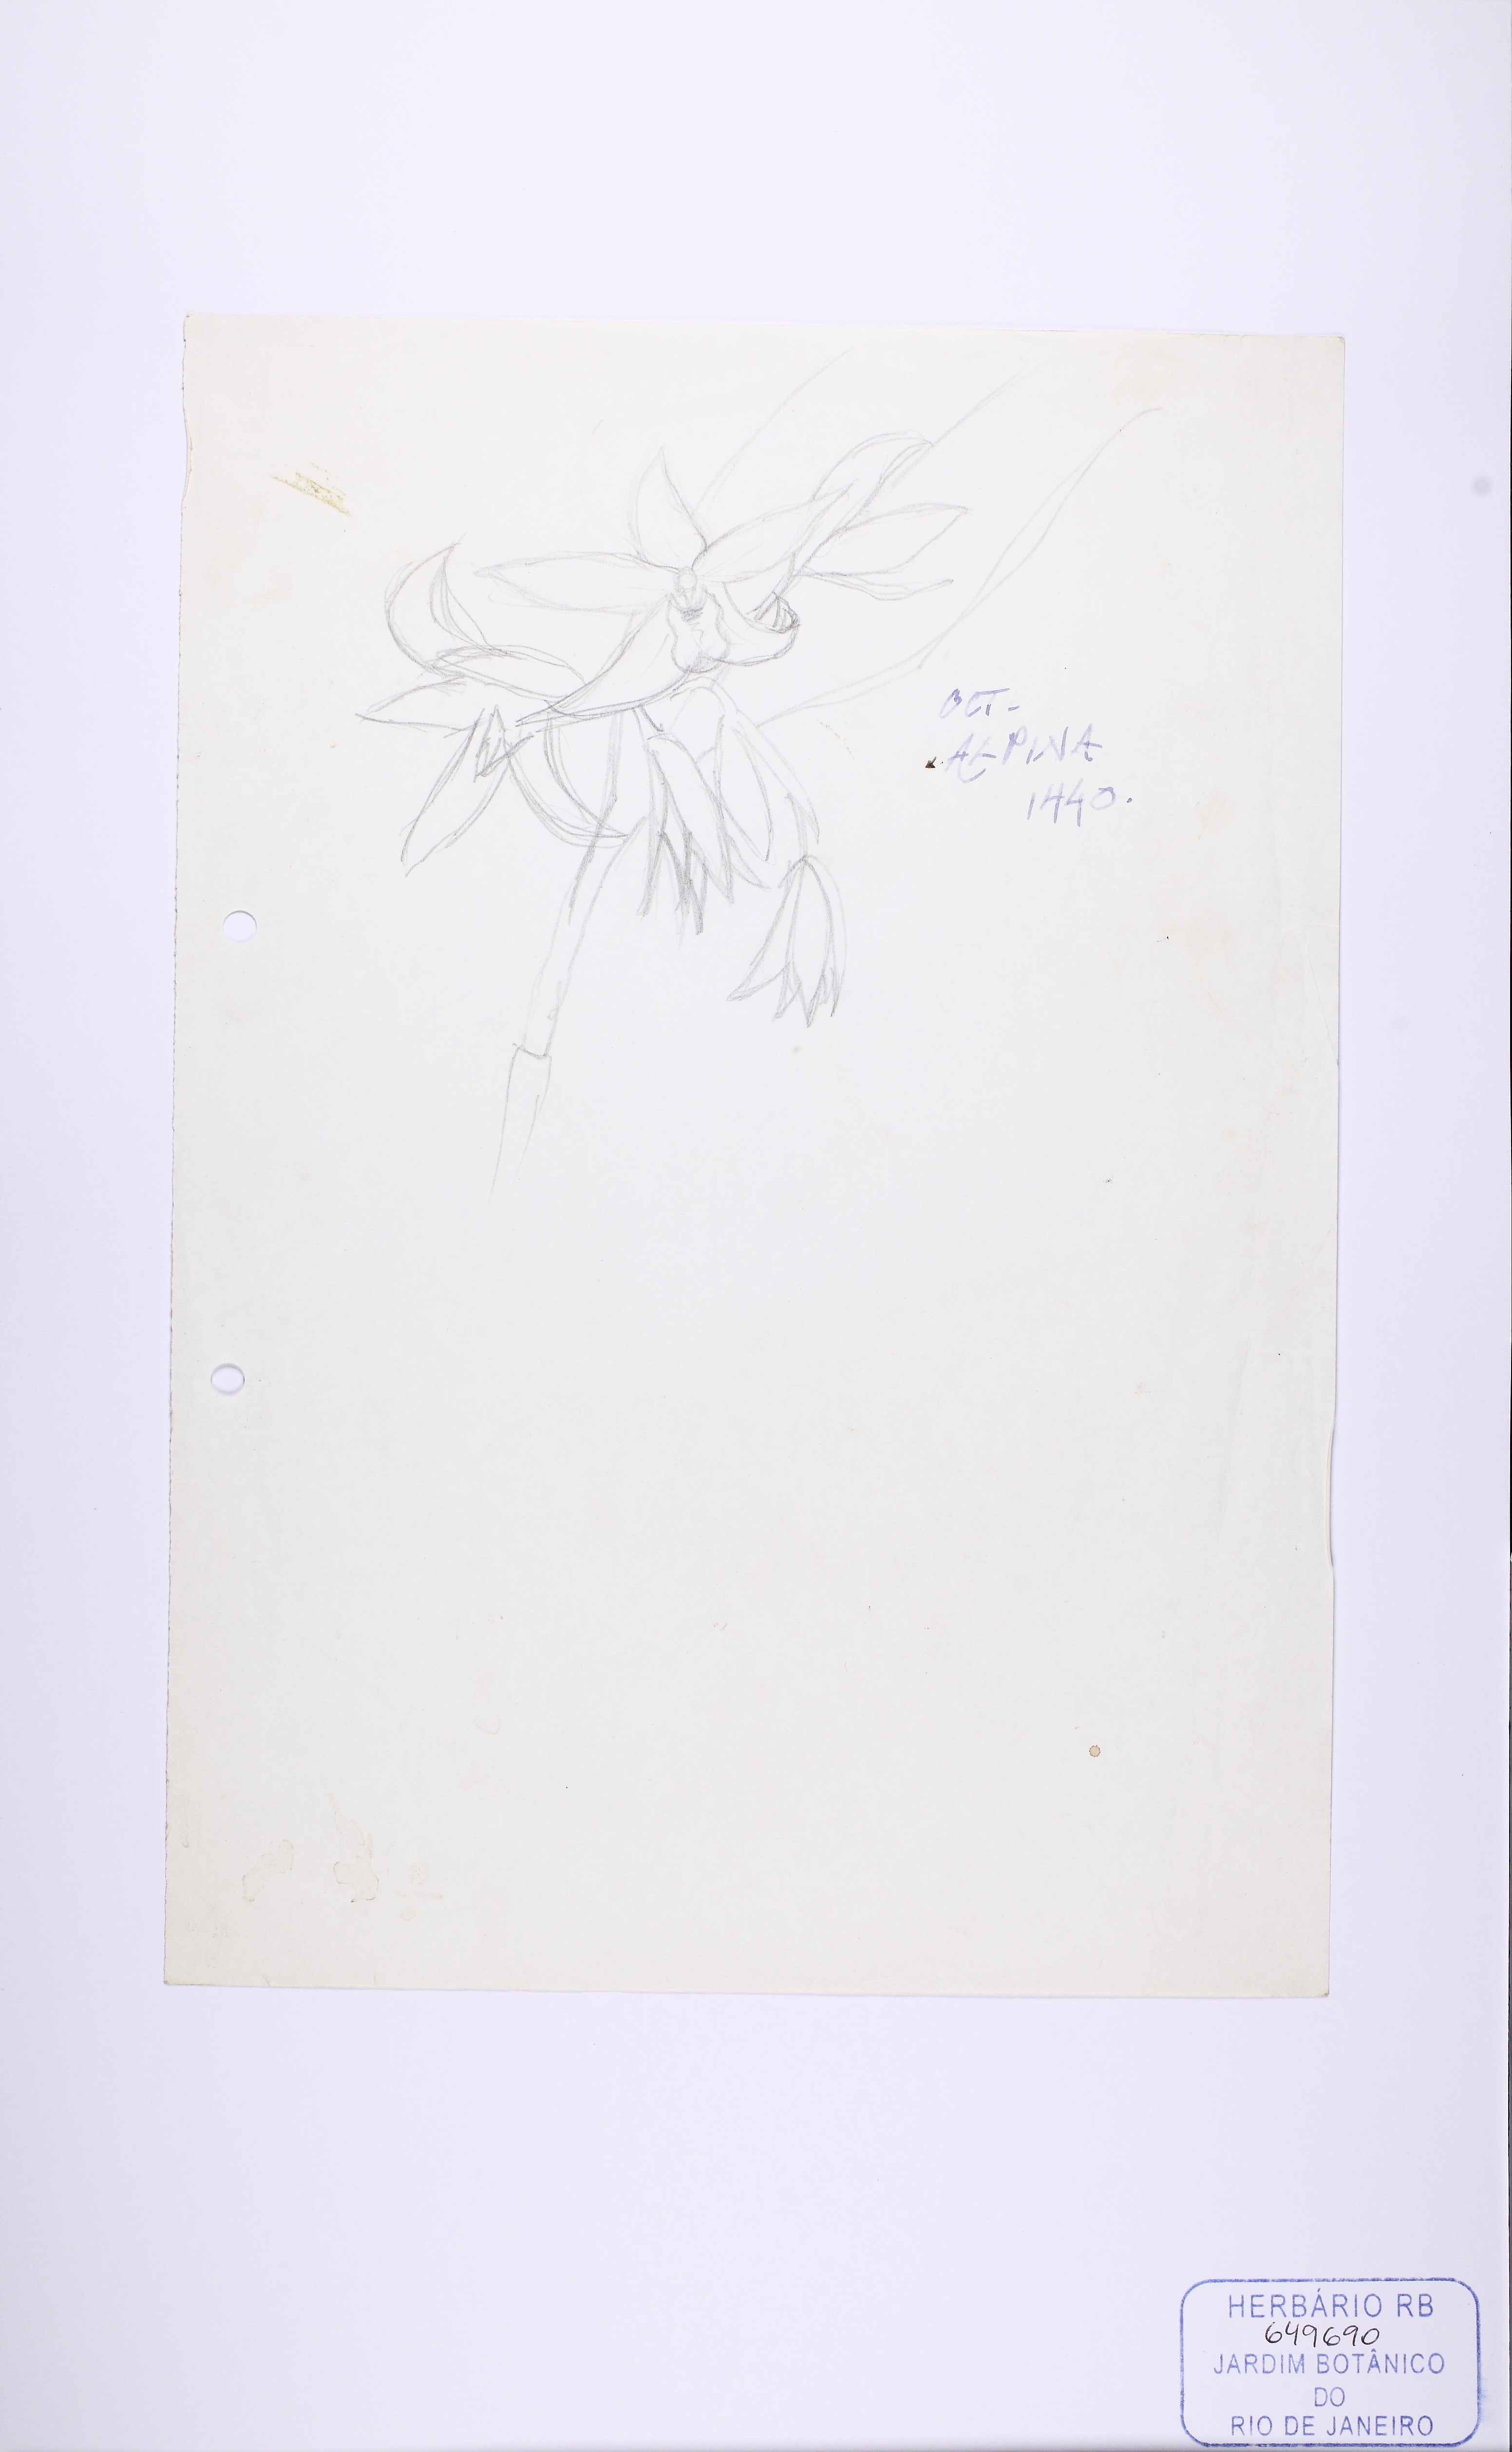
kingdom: Plantae
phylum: Tracheophyta
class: Liliopsida
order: Asparagales
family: Orchidaceae
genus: Octomeria
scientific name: Octomeria crassifolia
